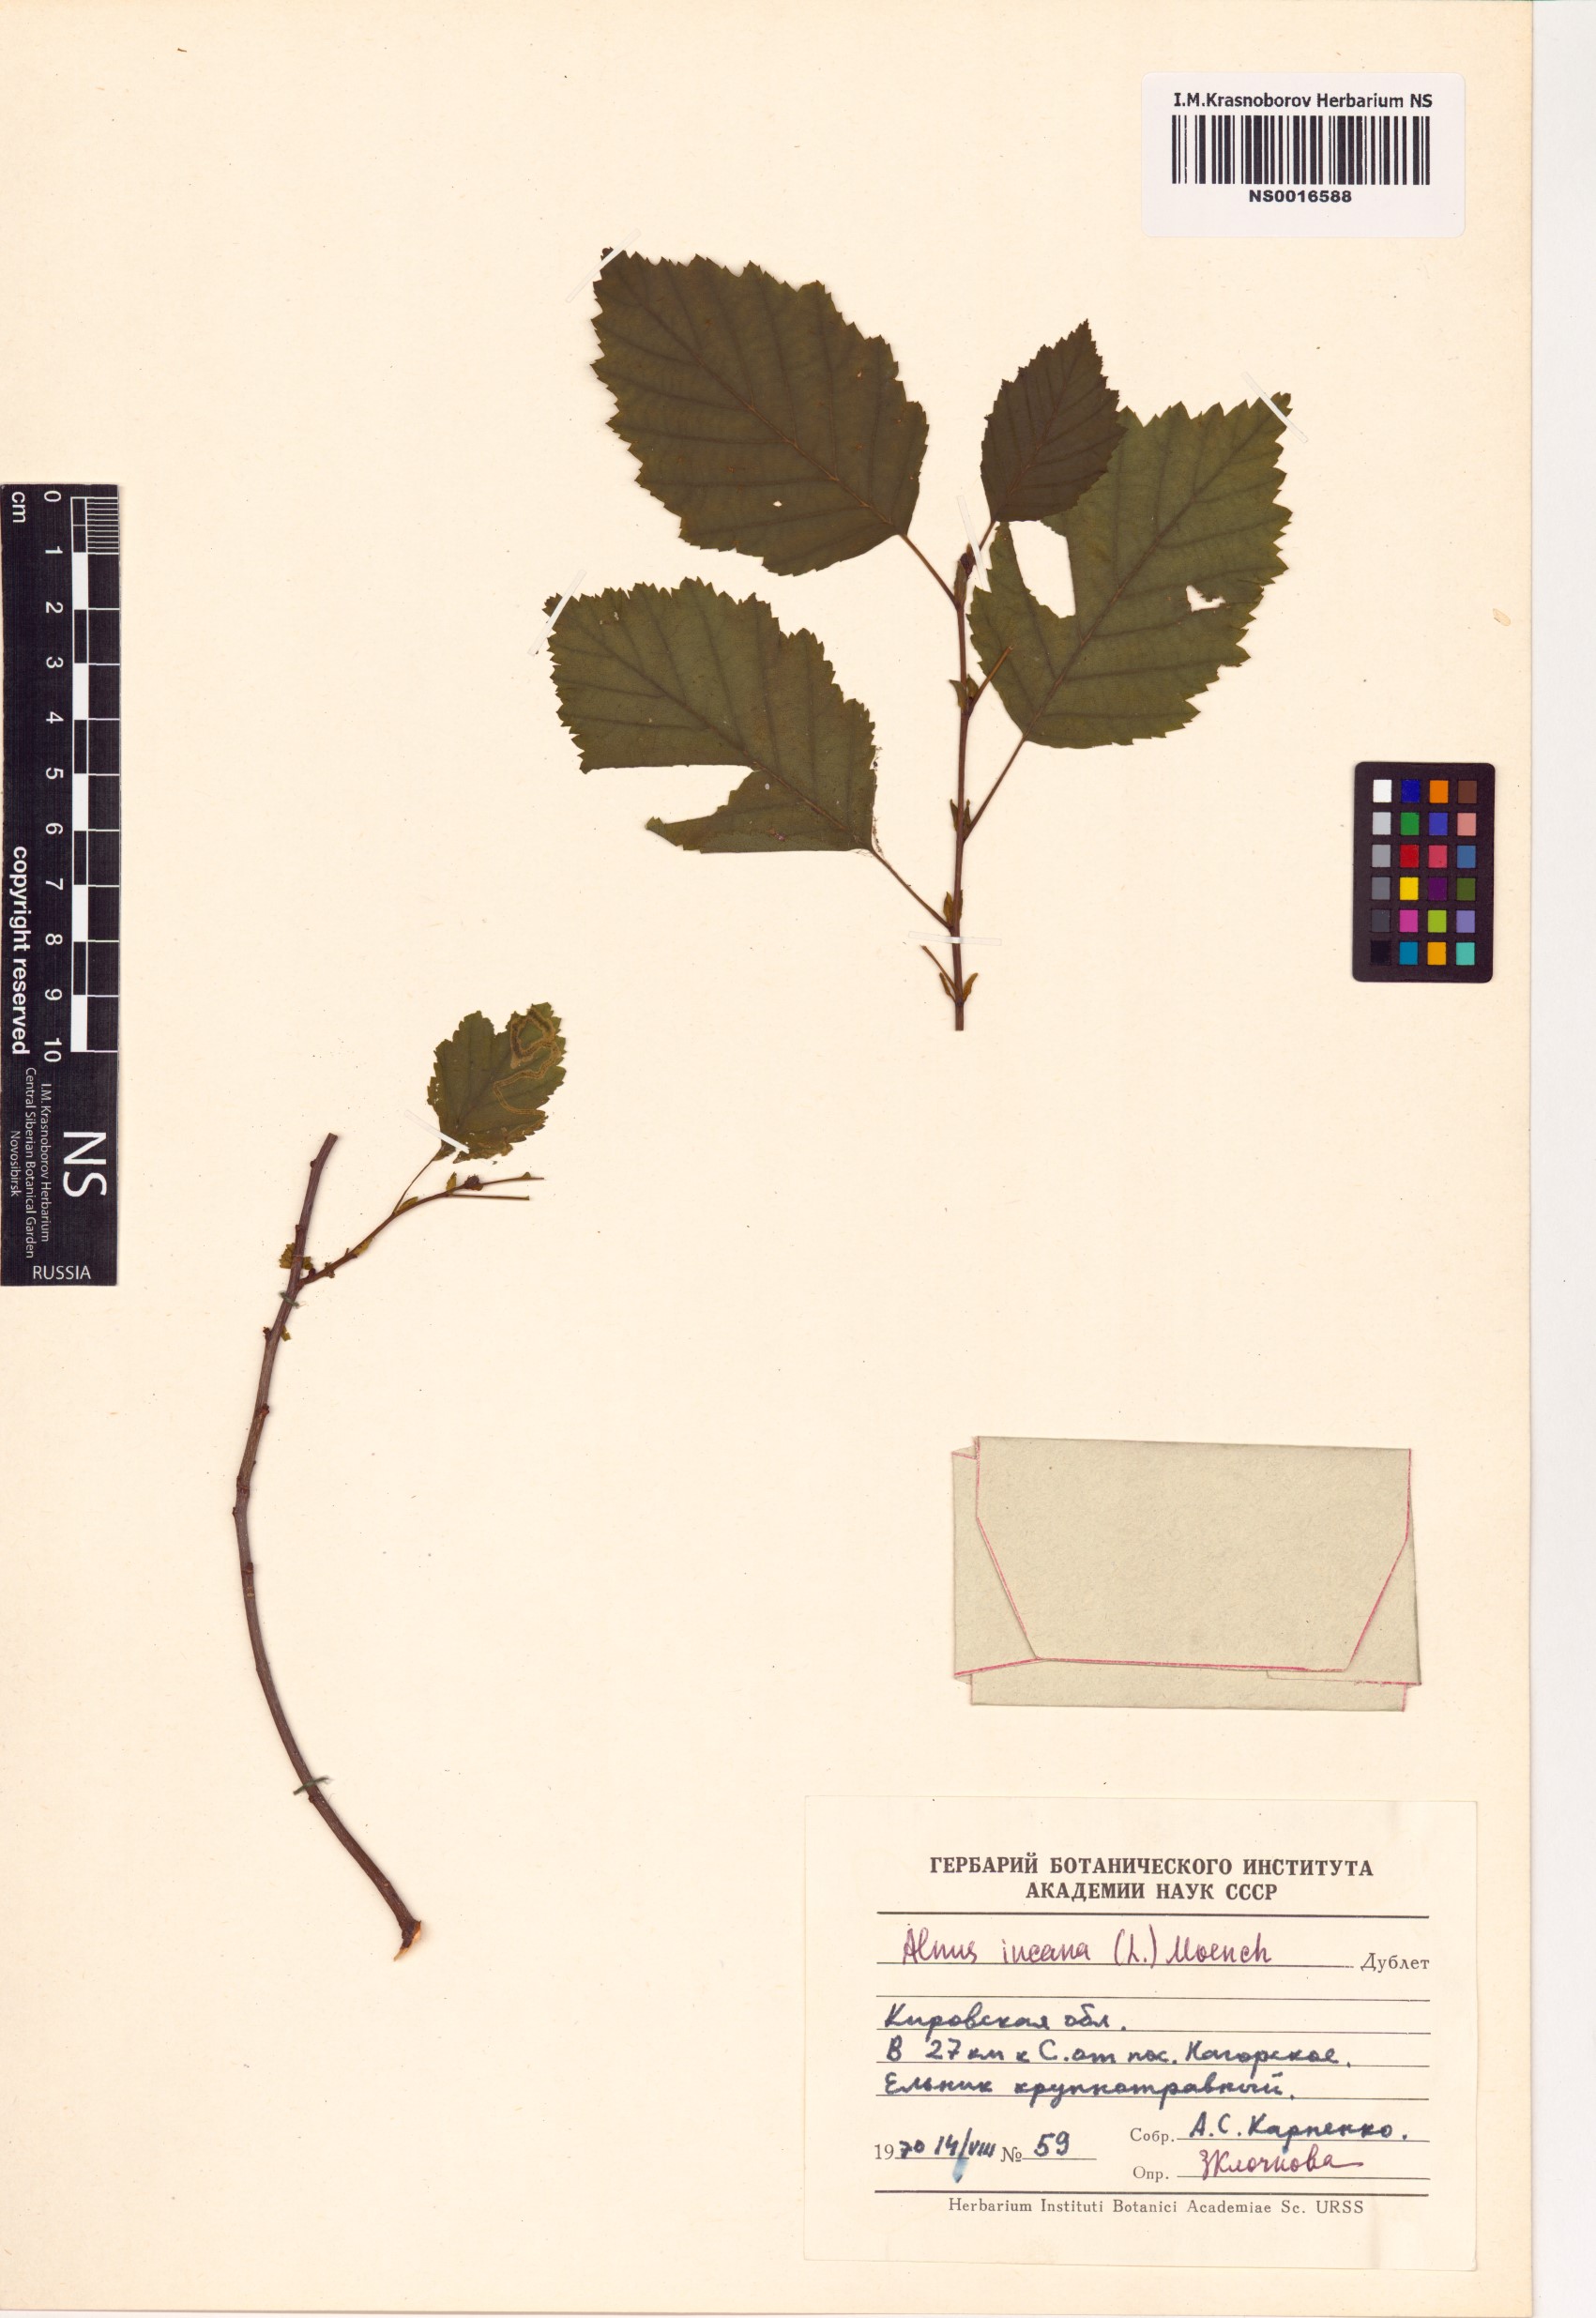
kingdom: Plantae
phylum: Tracheophyta
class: Magnoliopsida
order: Fagales
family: Betulaceae
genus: Alnus
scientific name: Alnus incana
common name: Grey alder
